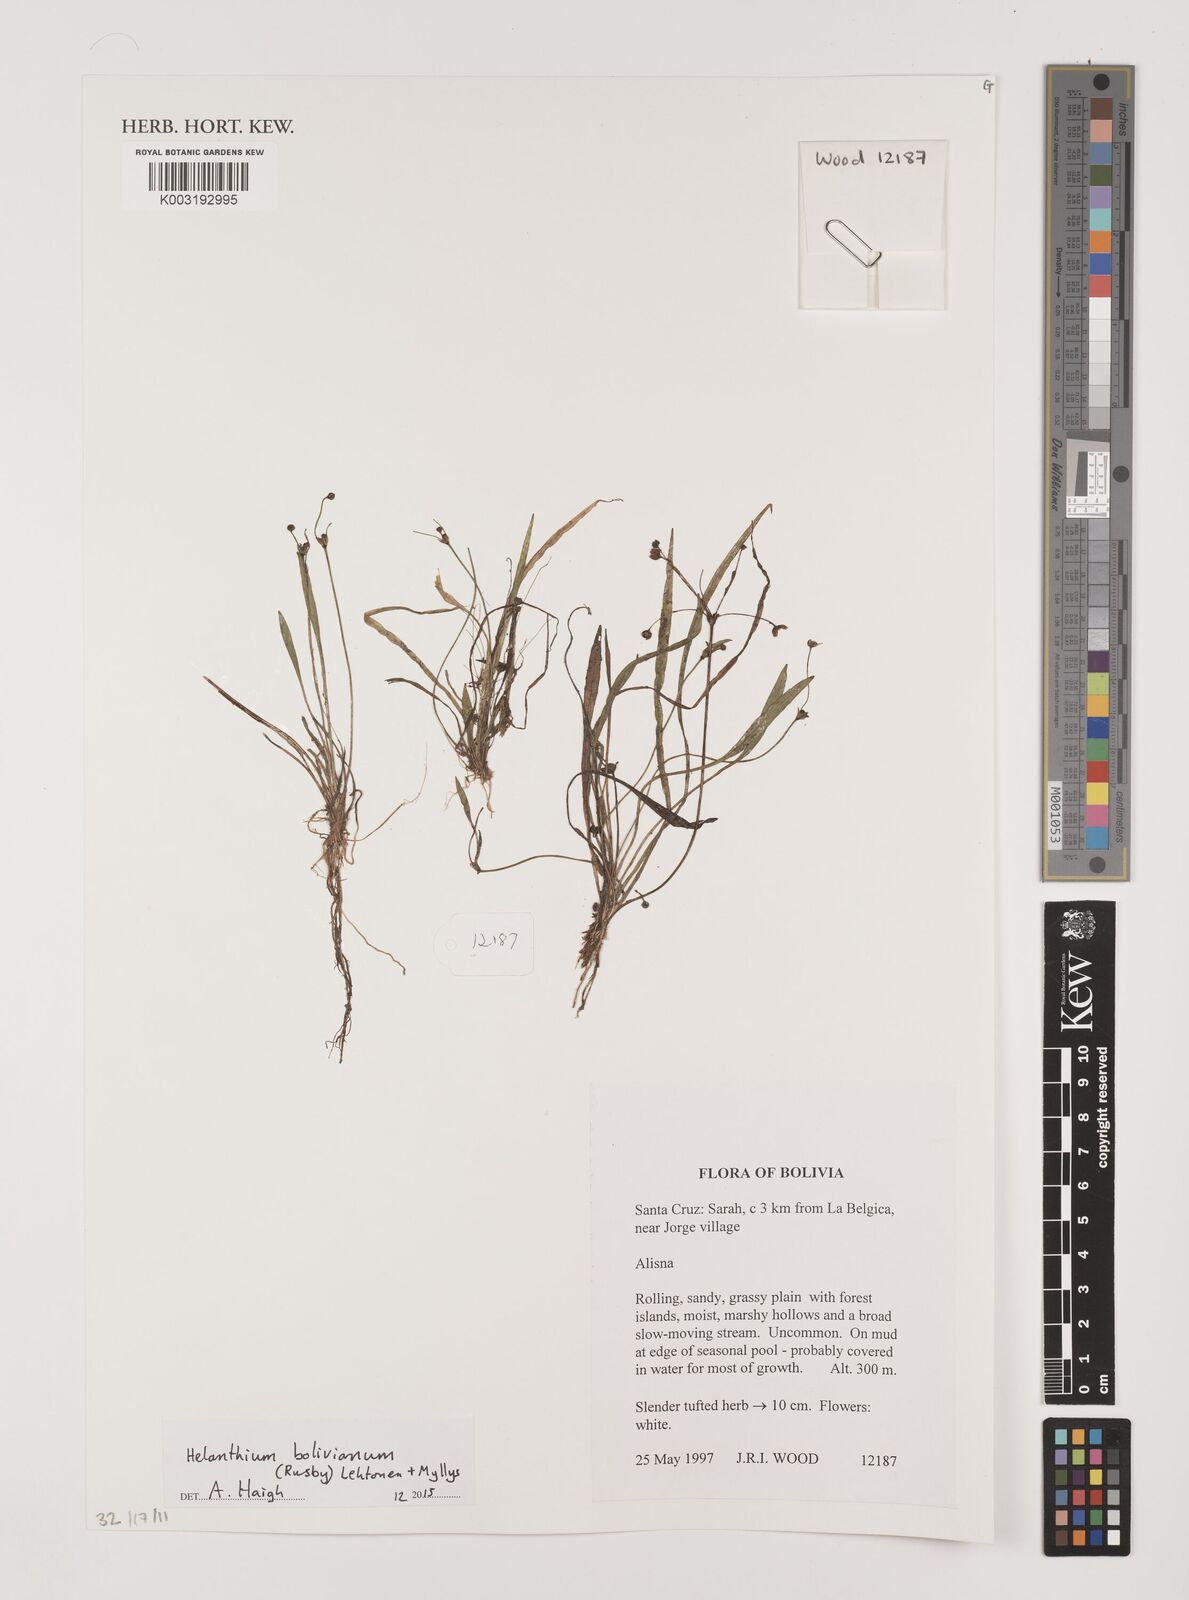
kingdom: Plantae
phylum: Tracheophyta
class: Liliopsida
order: Alismatales
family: Alismataceae
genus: Helanthium
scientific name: Helanthium bolivianum
